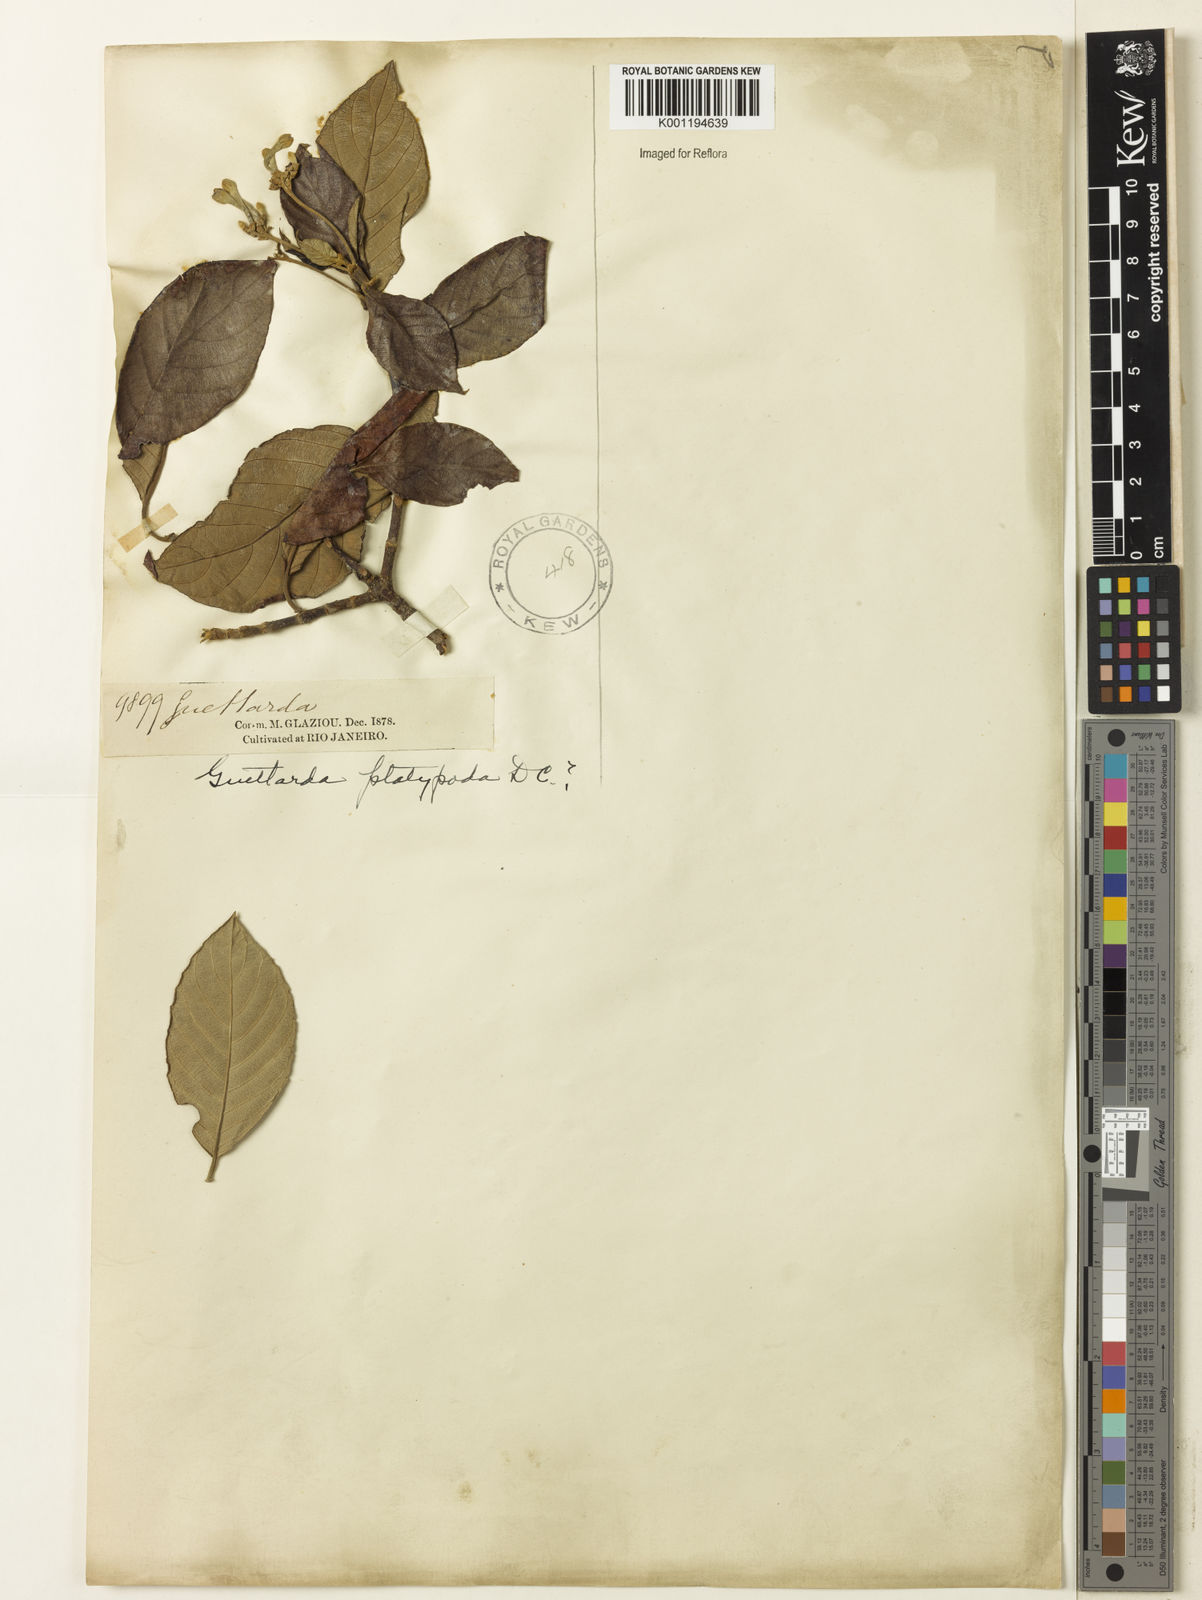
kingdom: Plantae
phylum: Tracheophyta
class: Magnoliopsida
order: Gentianales
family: Rubiaceae
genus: Guettarda
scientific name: Guettarda platypoda
